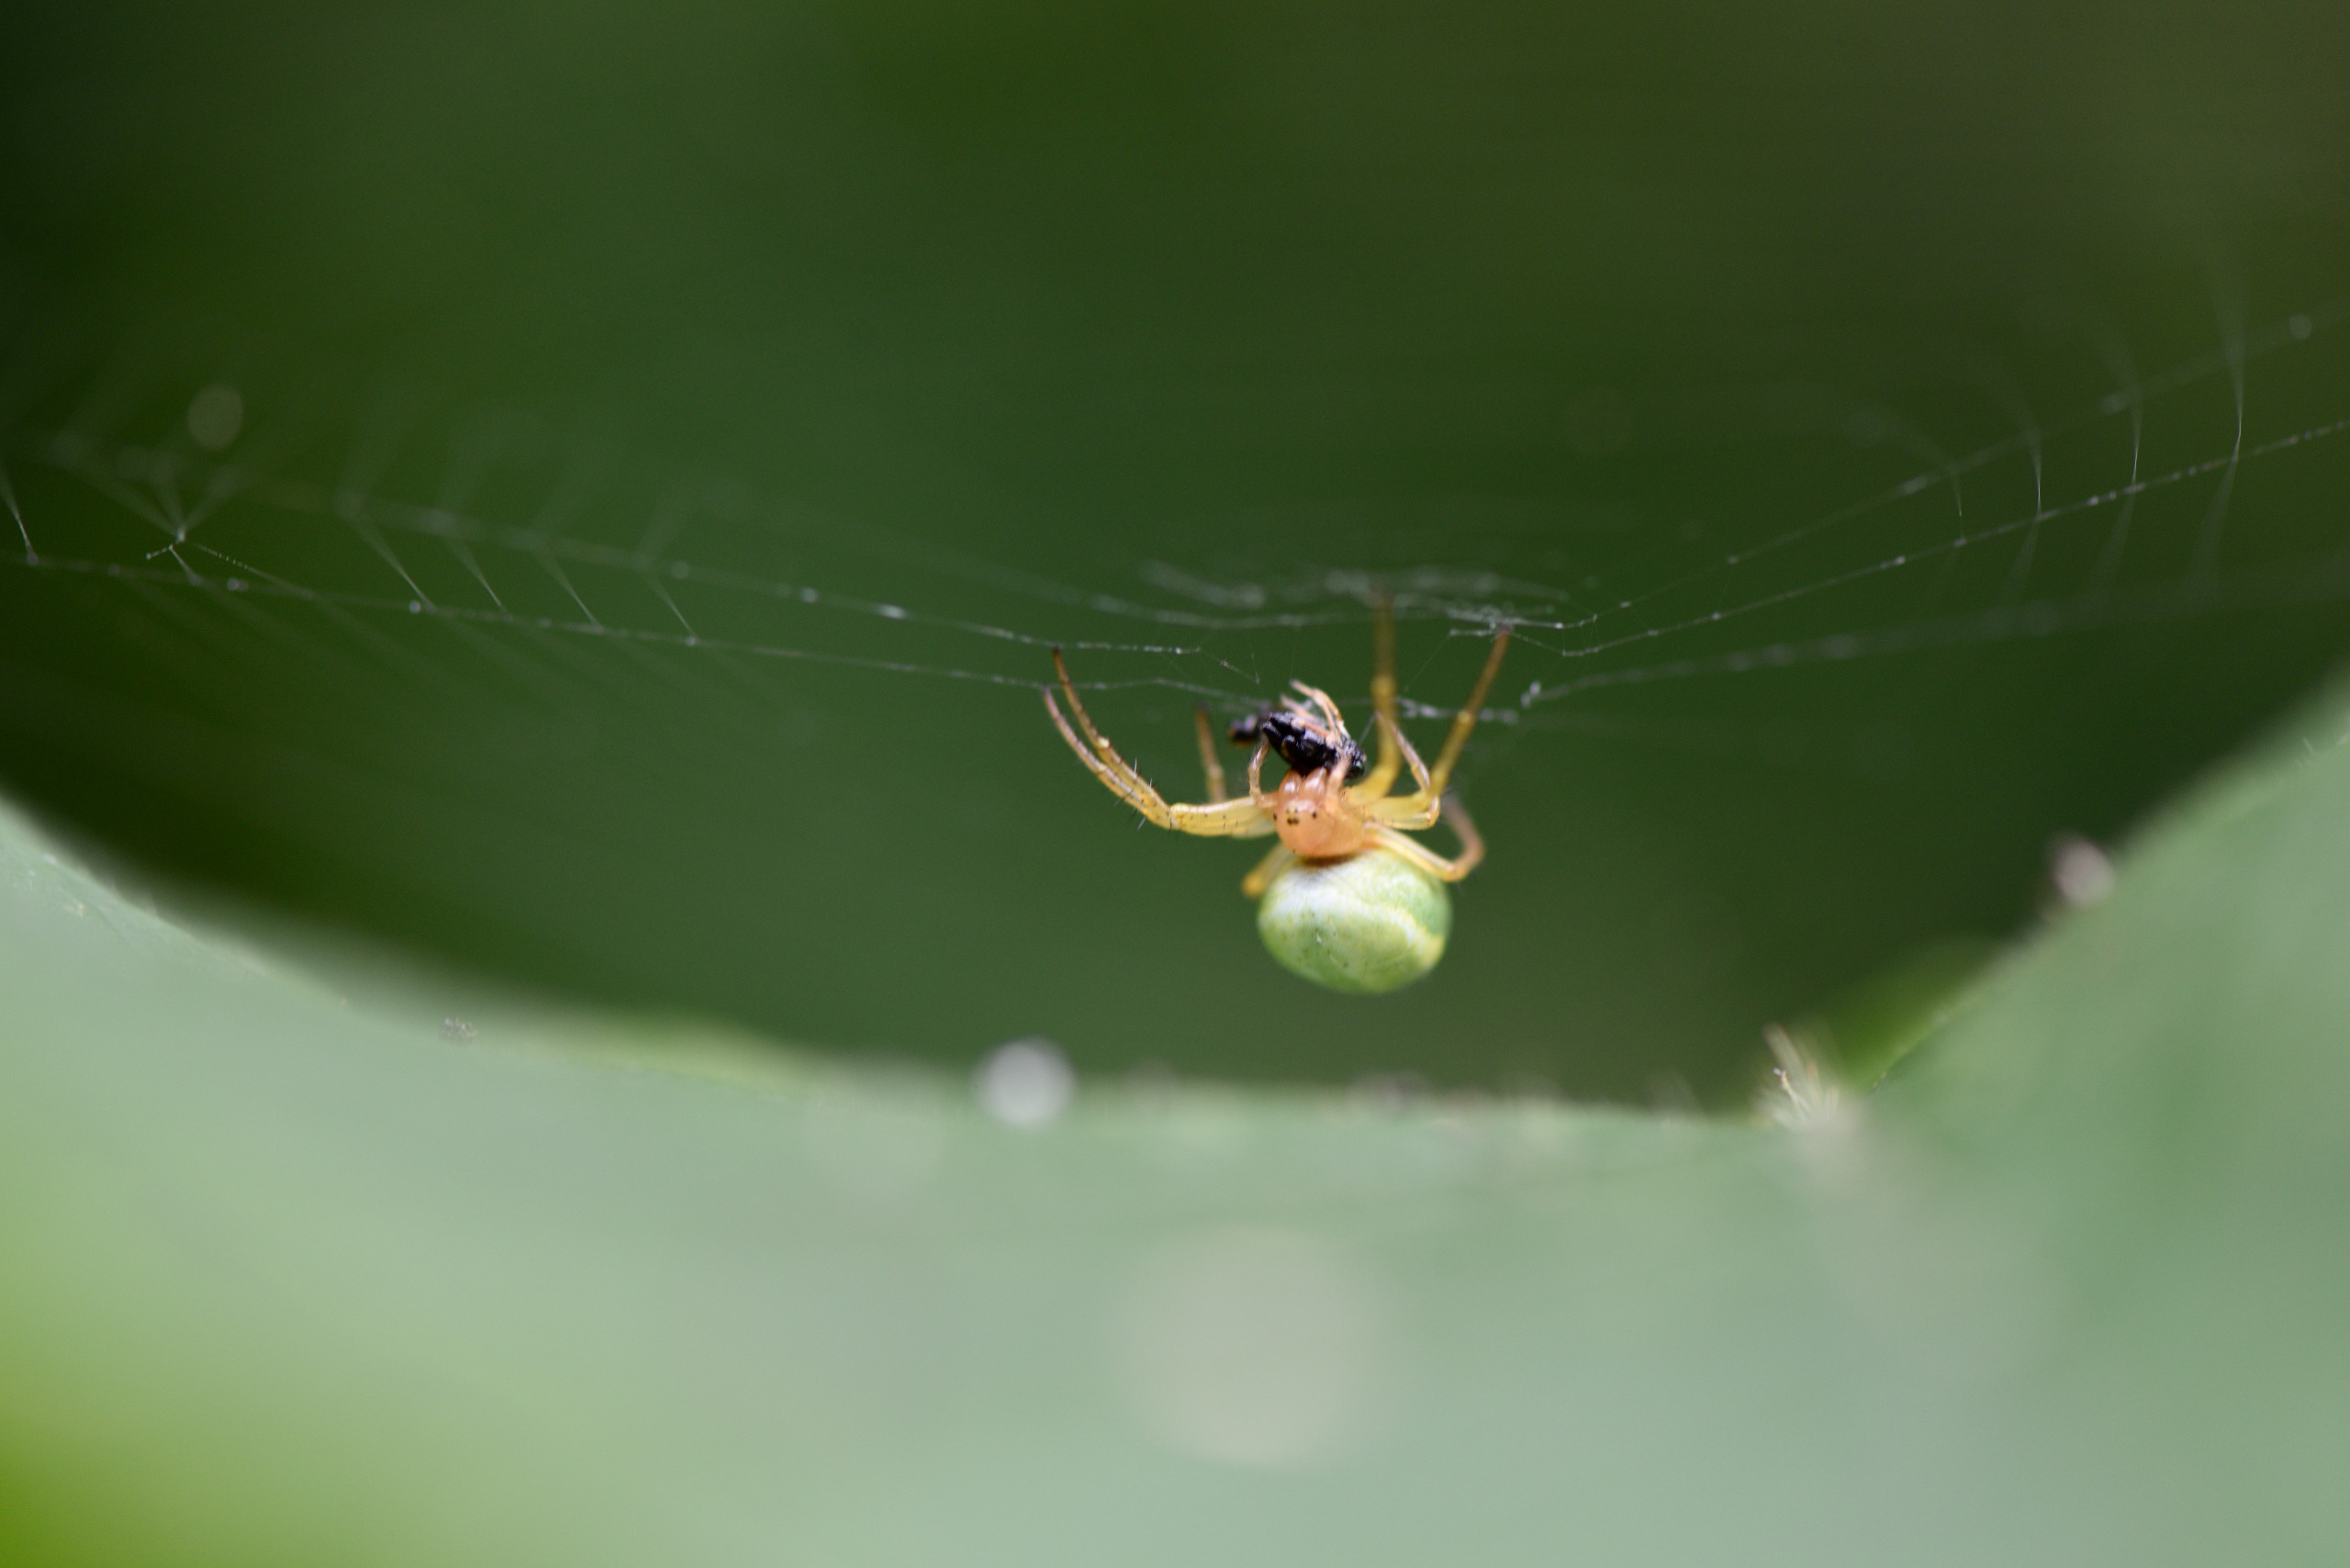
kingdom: Animalia
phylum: Arthropoda
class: Arachnida
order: Araneae
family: Araneidae
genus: Araniella
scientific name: Araniella
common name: Agurkeedderkopslægten
